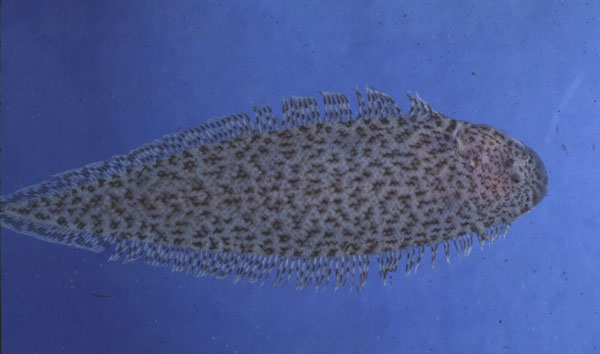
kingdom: Animalia
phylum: Chordata
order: Pleuronectiformes
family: Cynoglossidae
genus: Cynoglossus
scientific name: Cynoglossus itinus
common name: Speckled tongue sole
